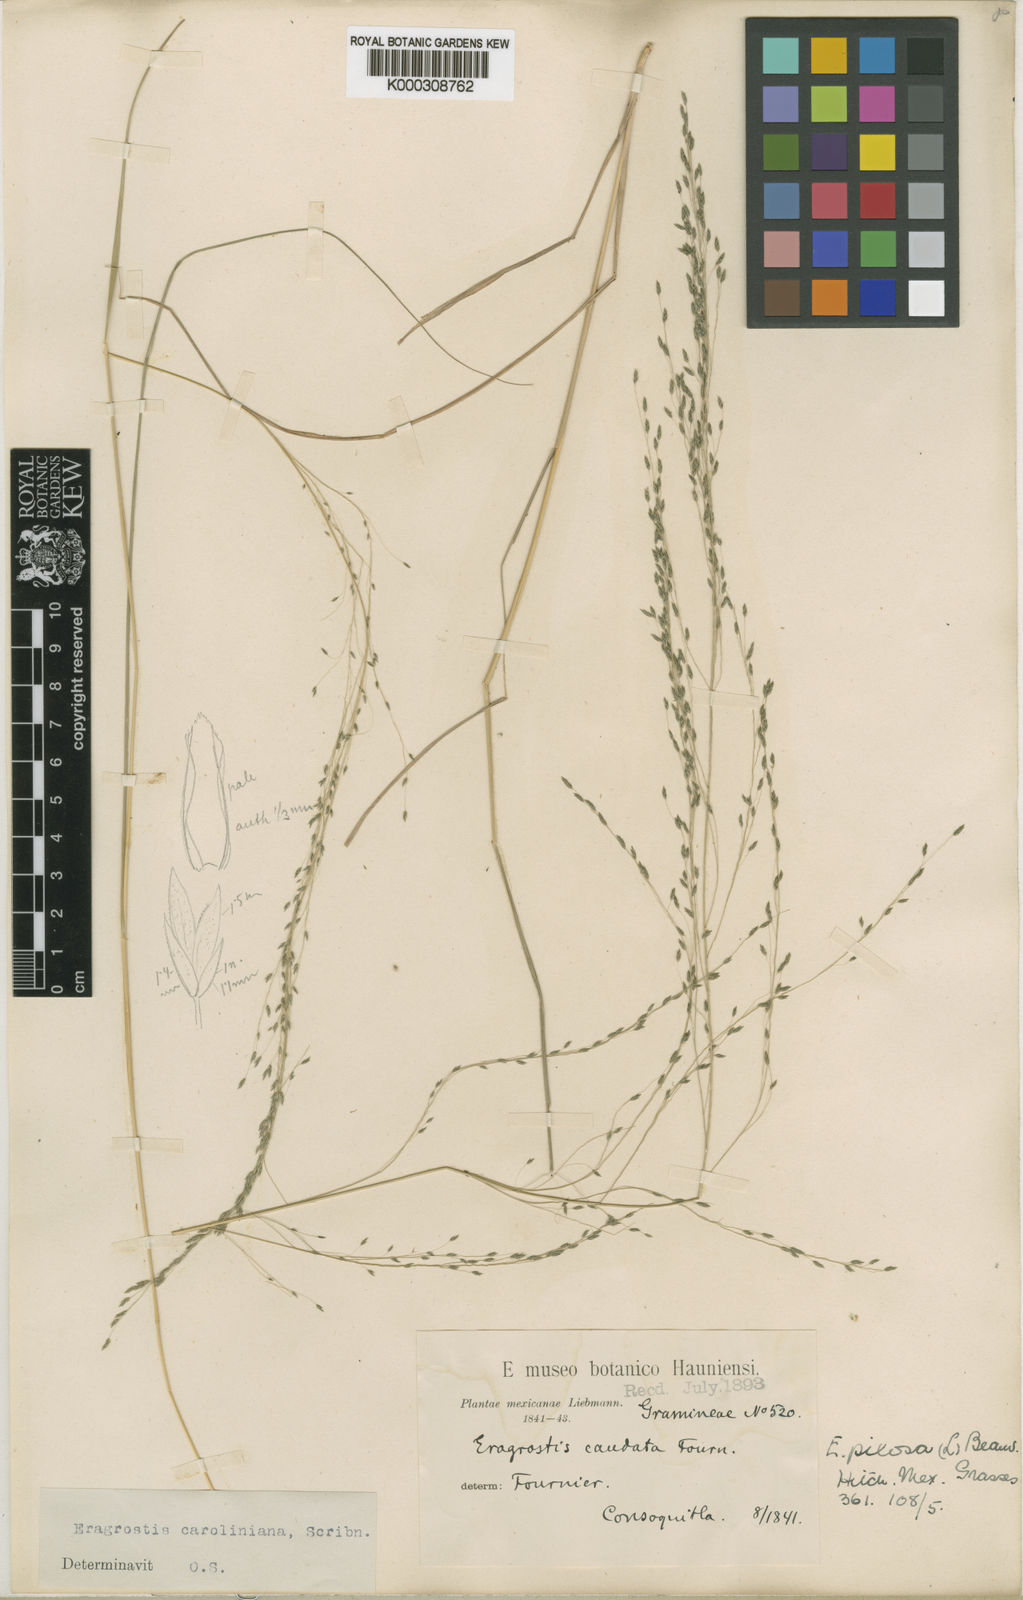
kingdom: Plantae
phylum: Tracheophyta
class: Liliopsida
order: Poales
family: Poaceae
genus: Eragrostis
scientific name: Eragrostis pectinacea
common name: Tufted lovegrass
